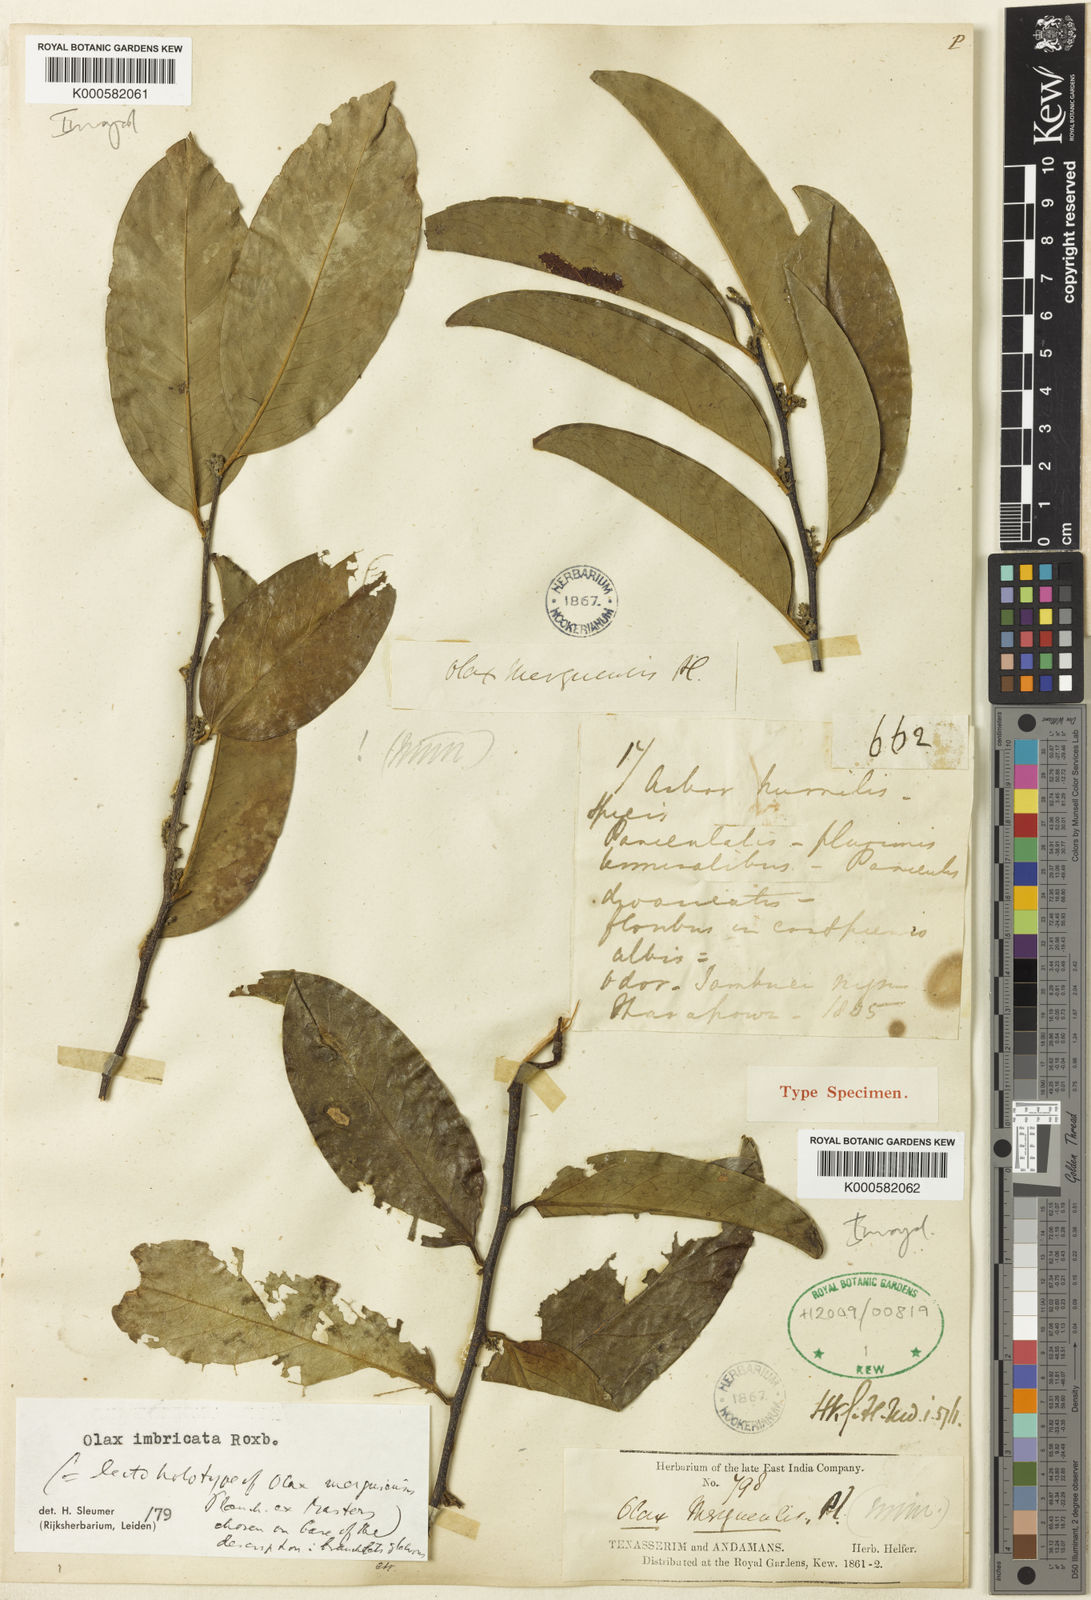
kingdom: Plantae
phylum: Tracheophyta
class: Magnoliopsida
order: Santalales
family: Olacaceae
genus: Olax
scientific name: Olax imbricata
